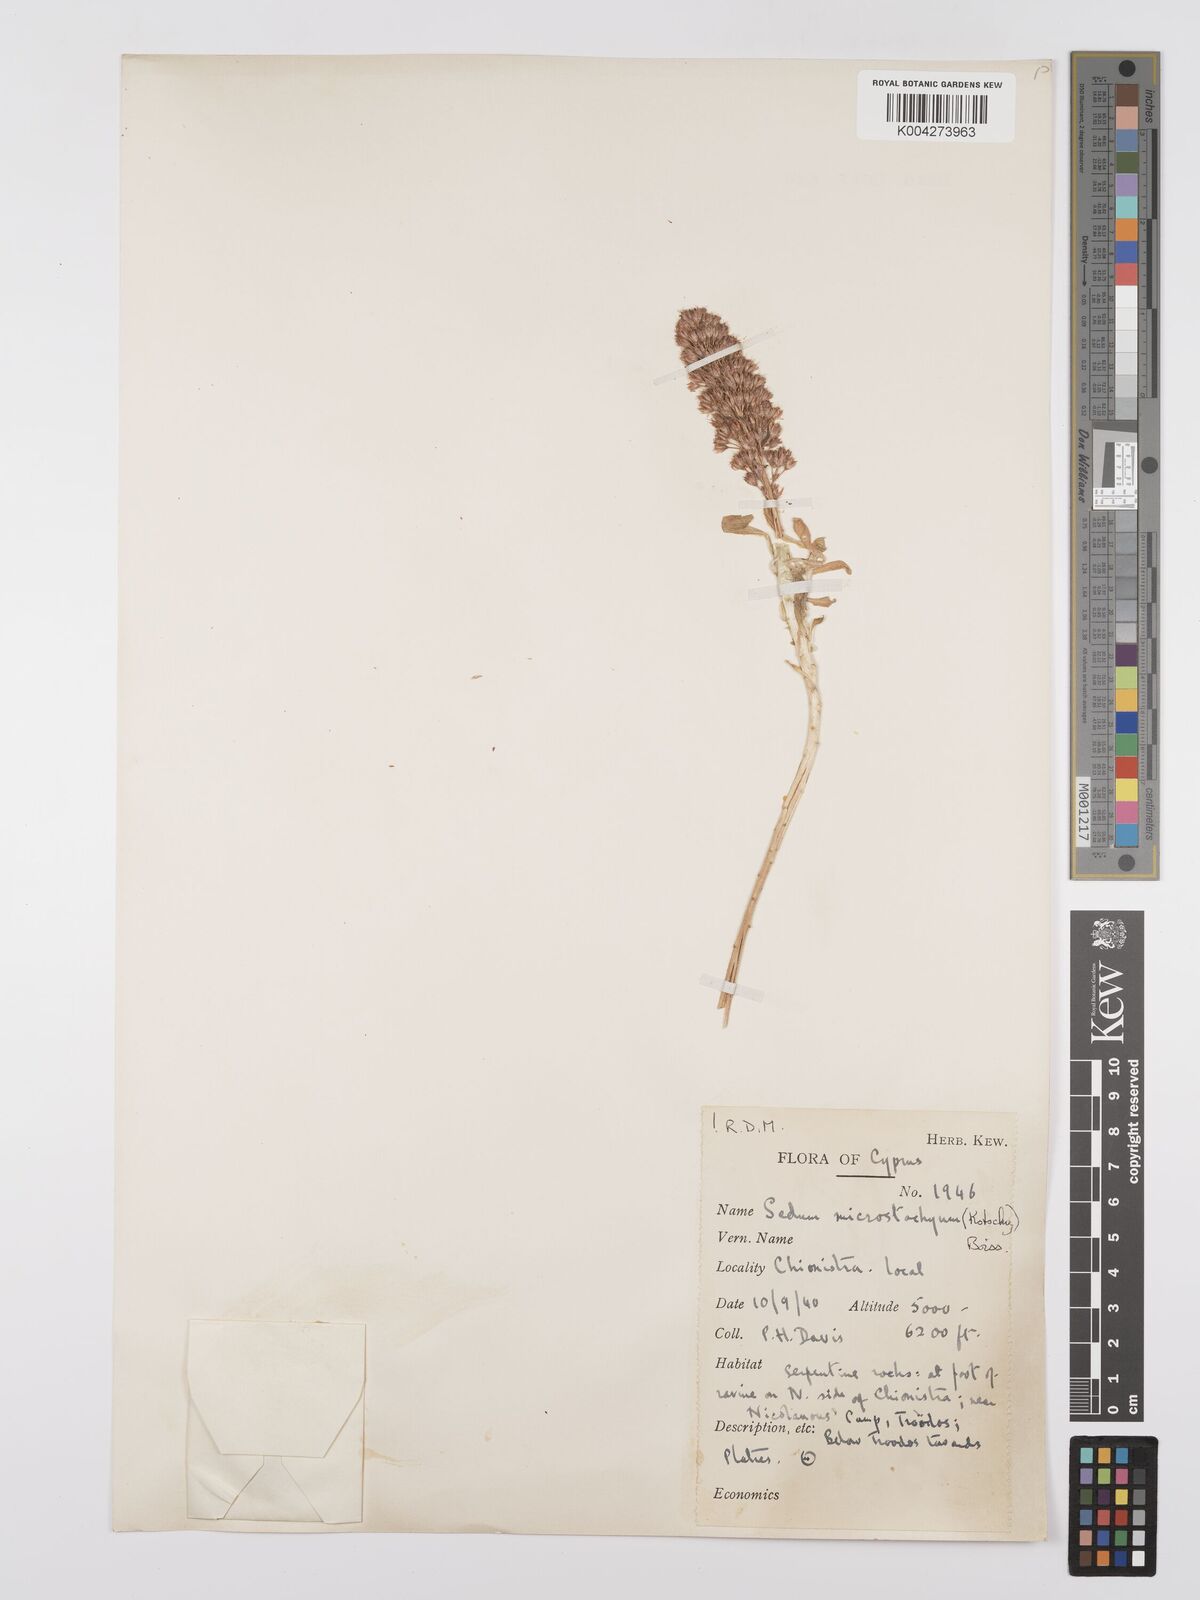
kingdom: Plantae
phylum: Tracheophyta
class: Magnoliopsida
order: Saxifragales
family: Crassulaceae
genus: Sedum
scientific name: Sedum microstachyum
